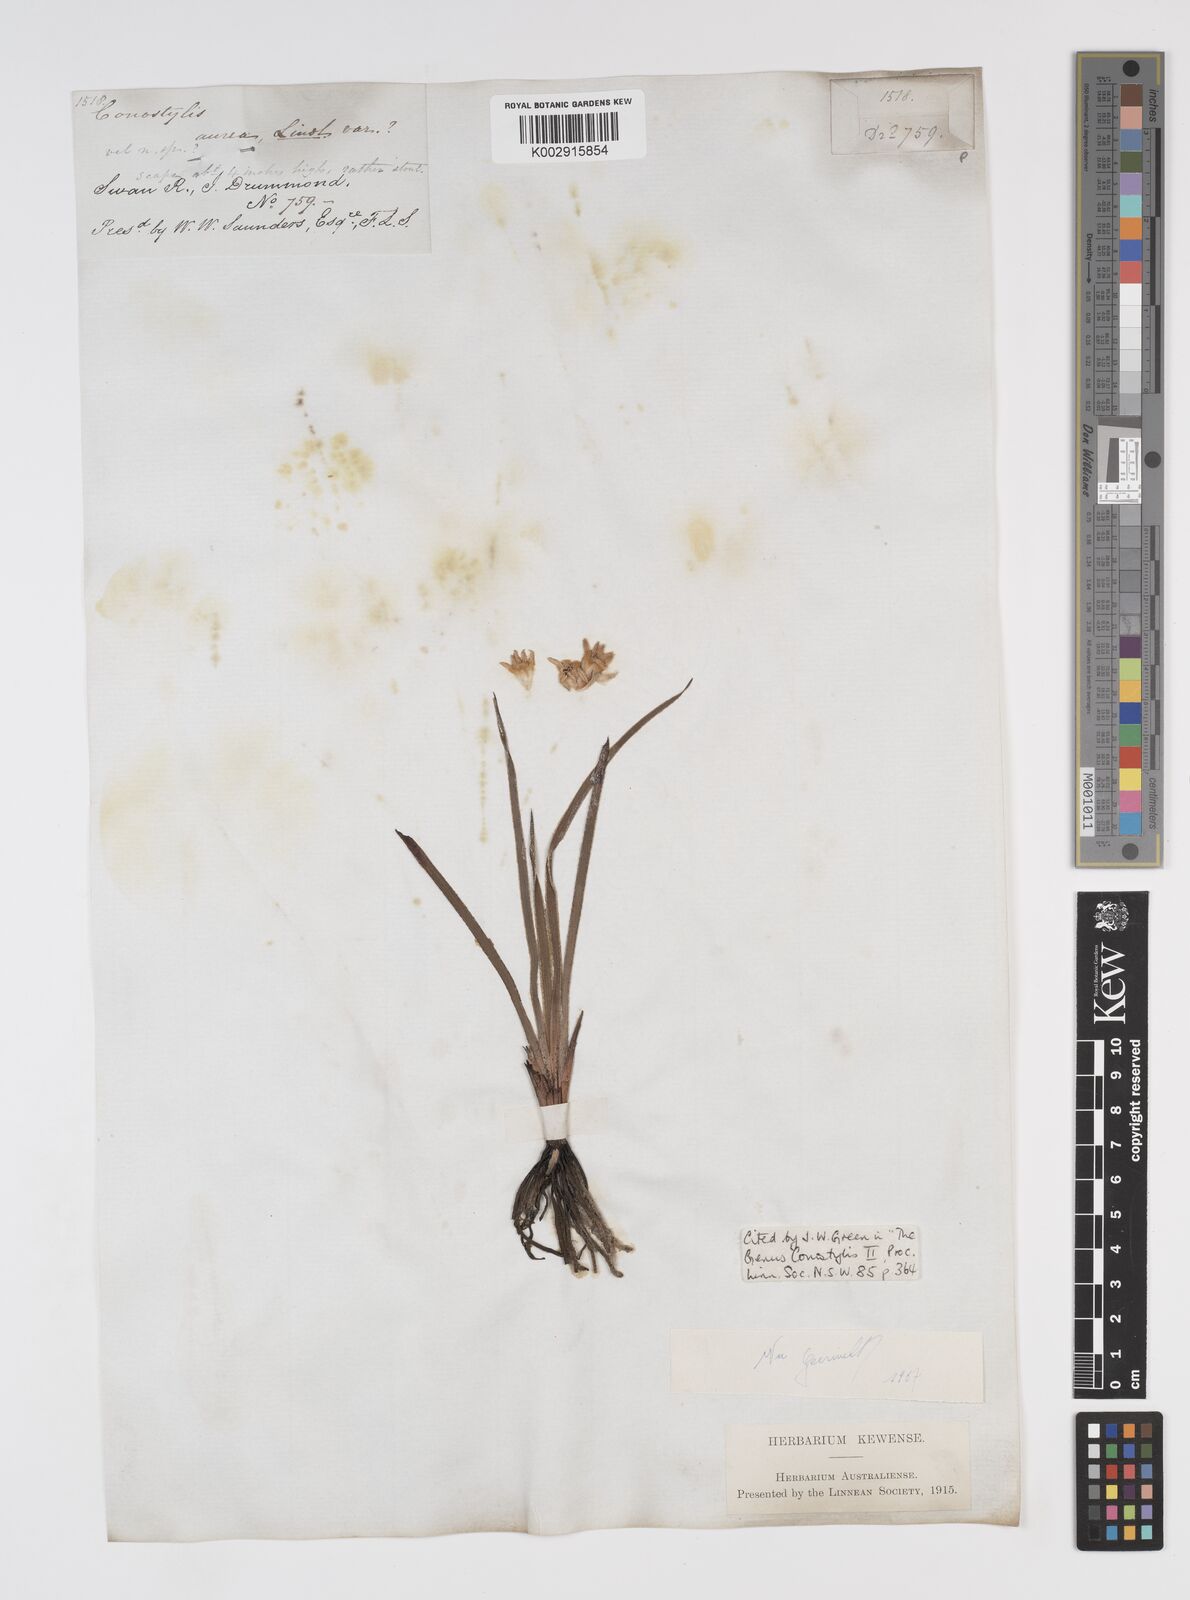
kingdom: Plantae
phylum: Tracheophyta
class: Liliopsida
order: Commelinales
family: Haemodoraceae
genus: Conostylis
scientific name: Conostylis aurea
